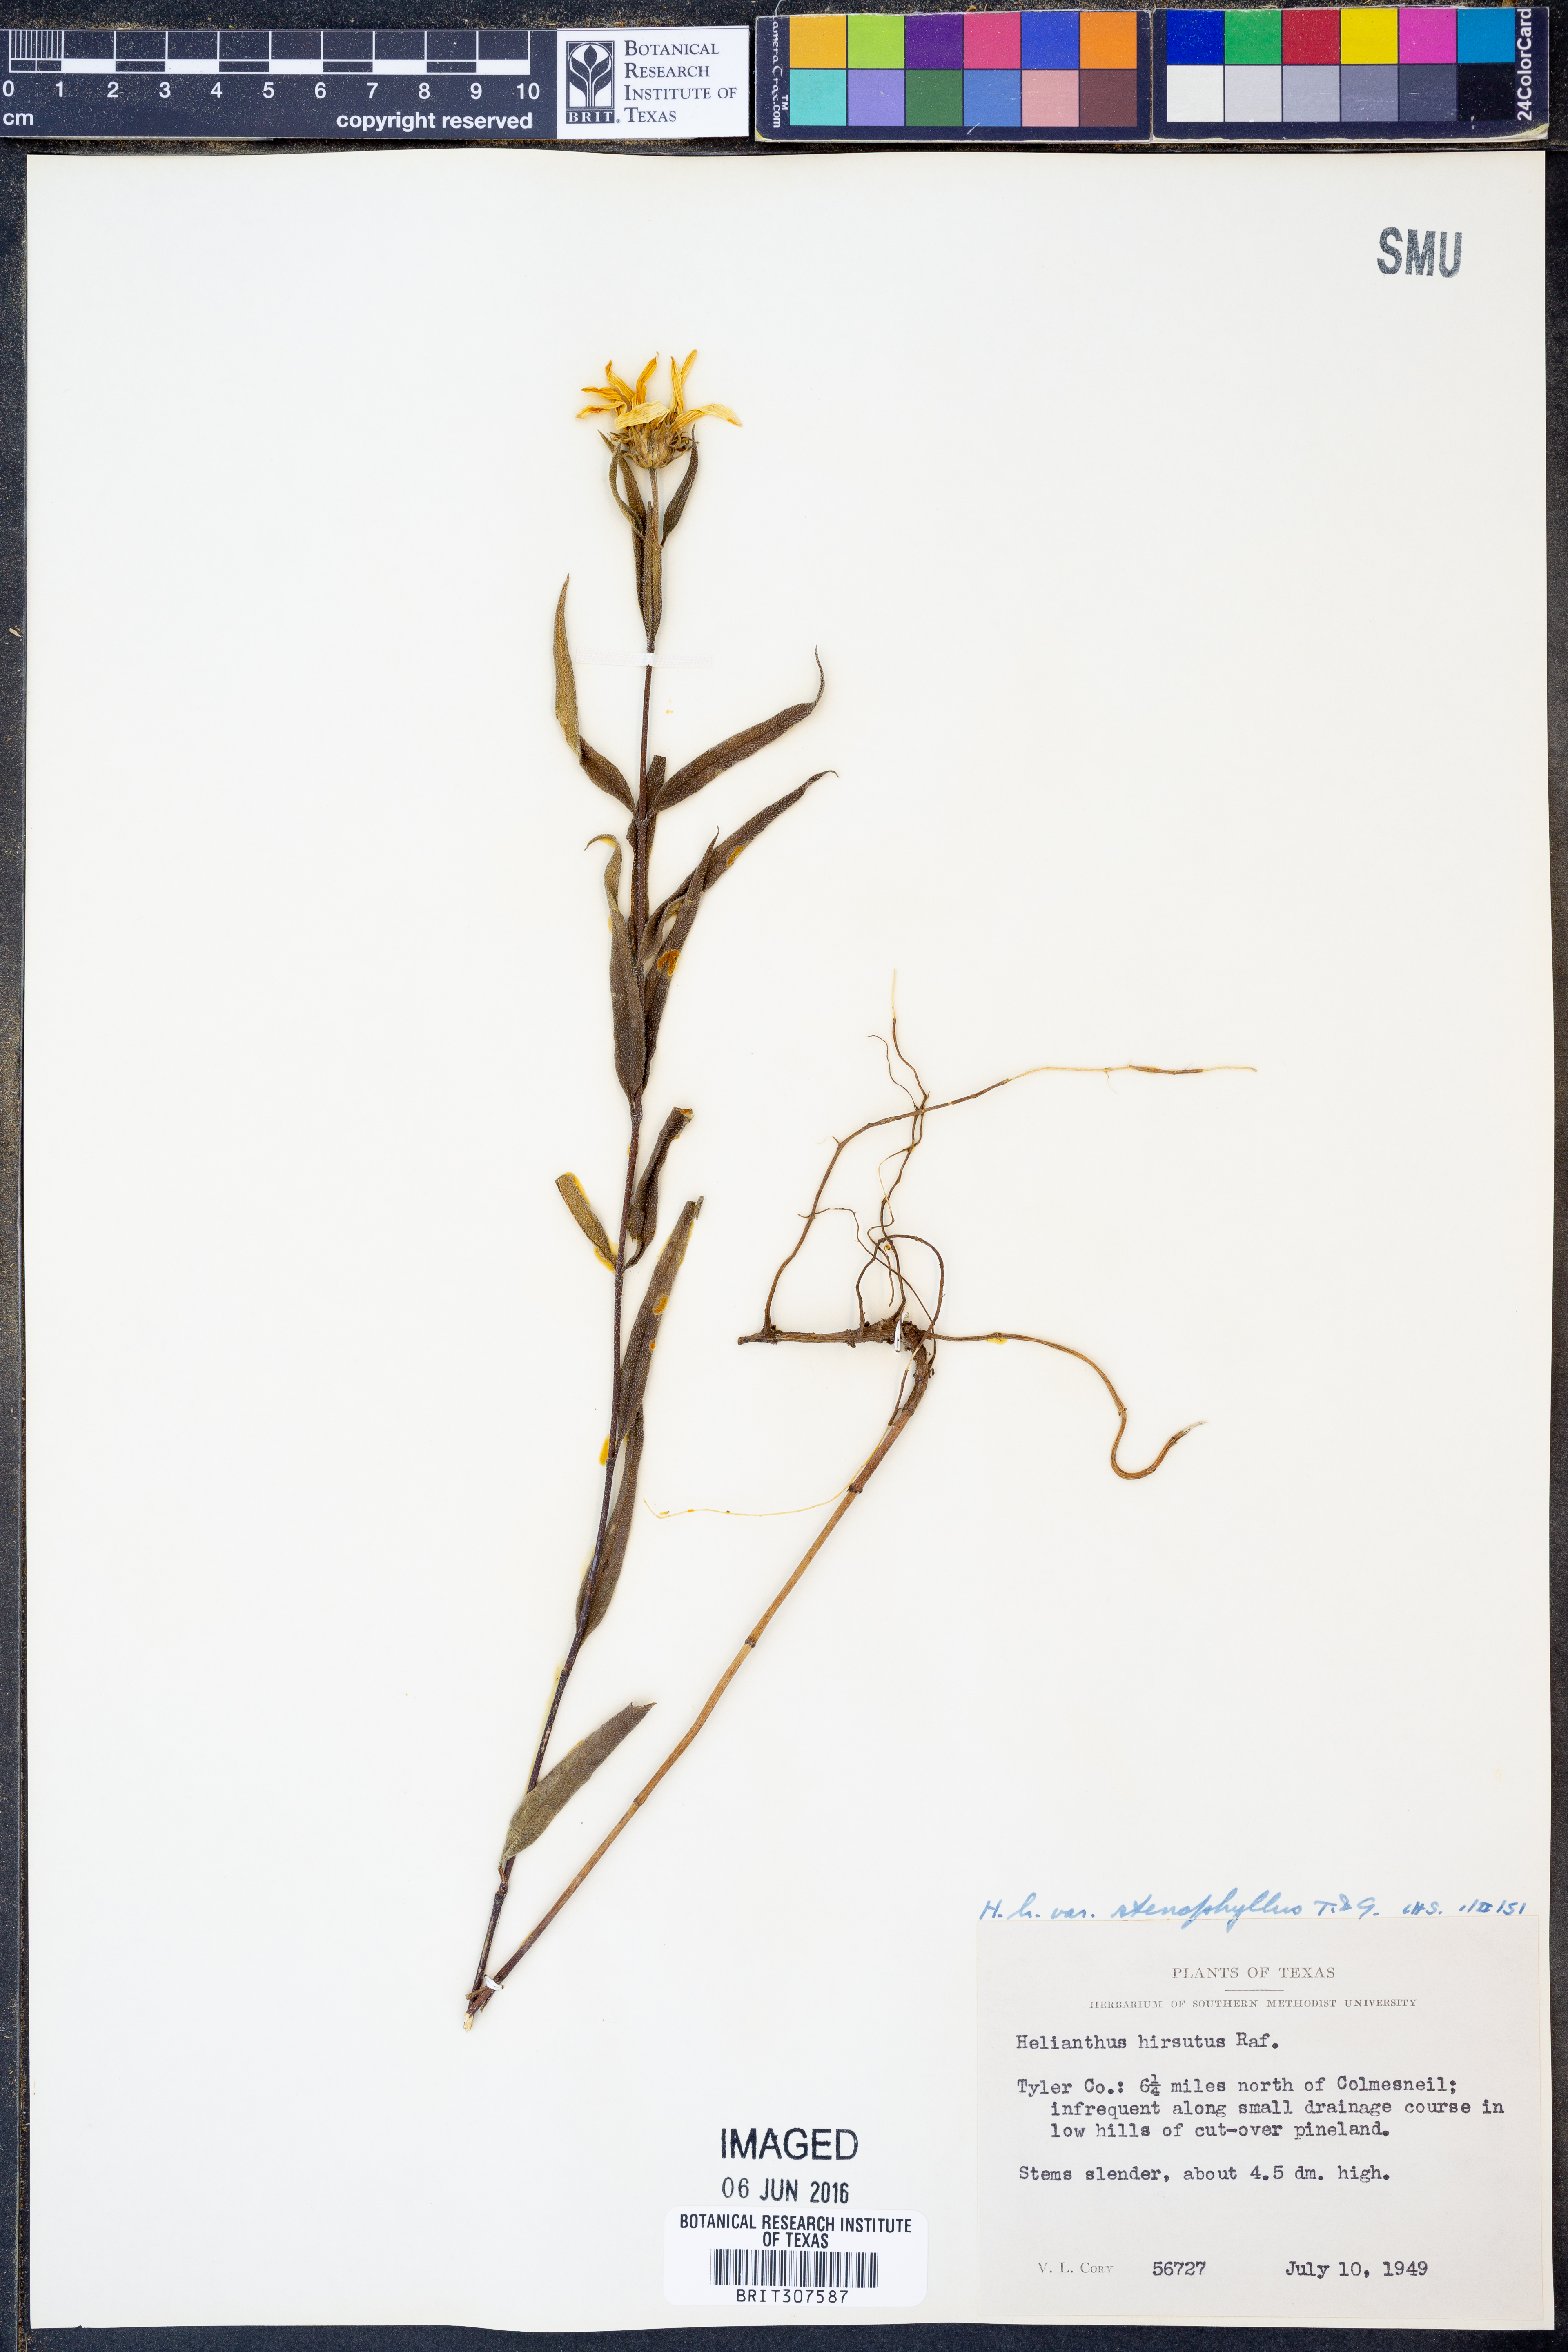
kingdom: Plantae
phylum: Tracheophyta
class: Magnoliopsida
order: Asterales
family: Asteraceae
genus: Helianthus
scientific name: Helianthus hirsutus
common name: Hairy sunflower
